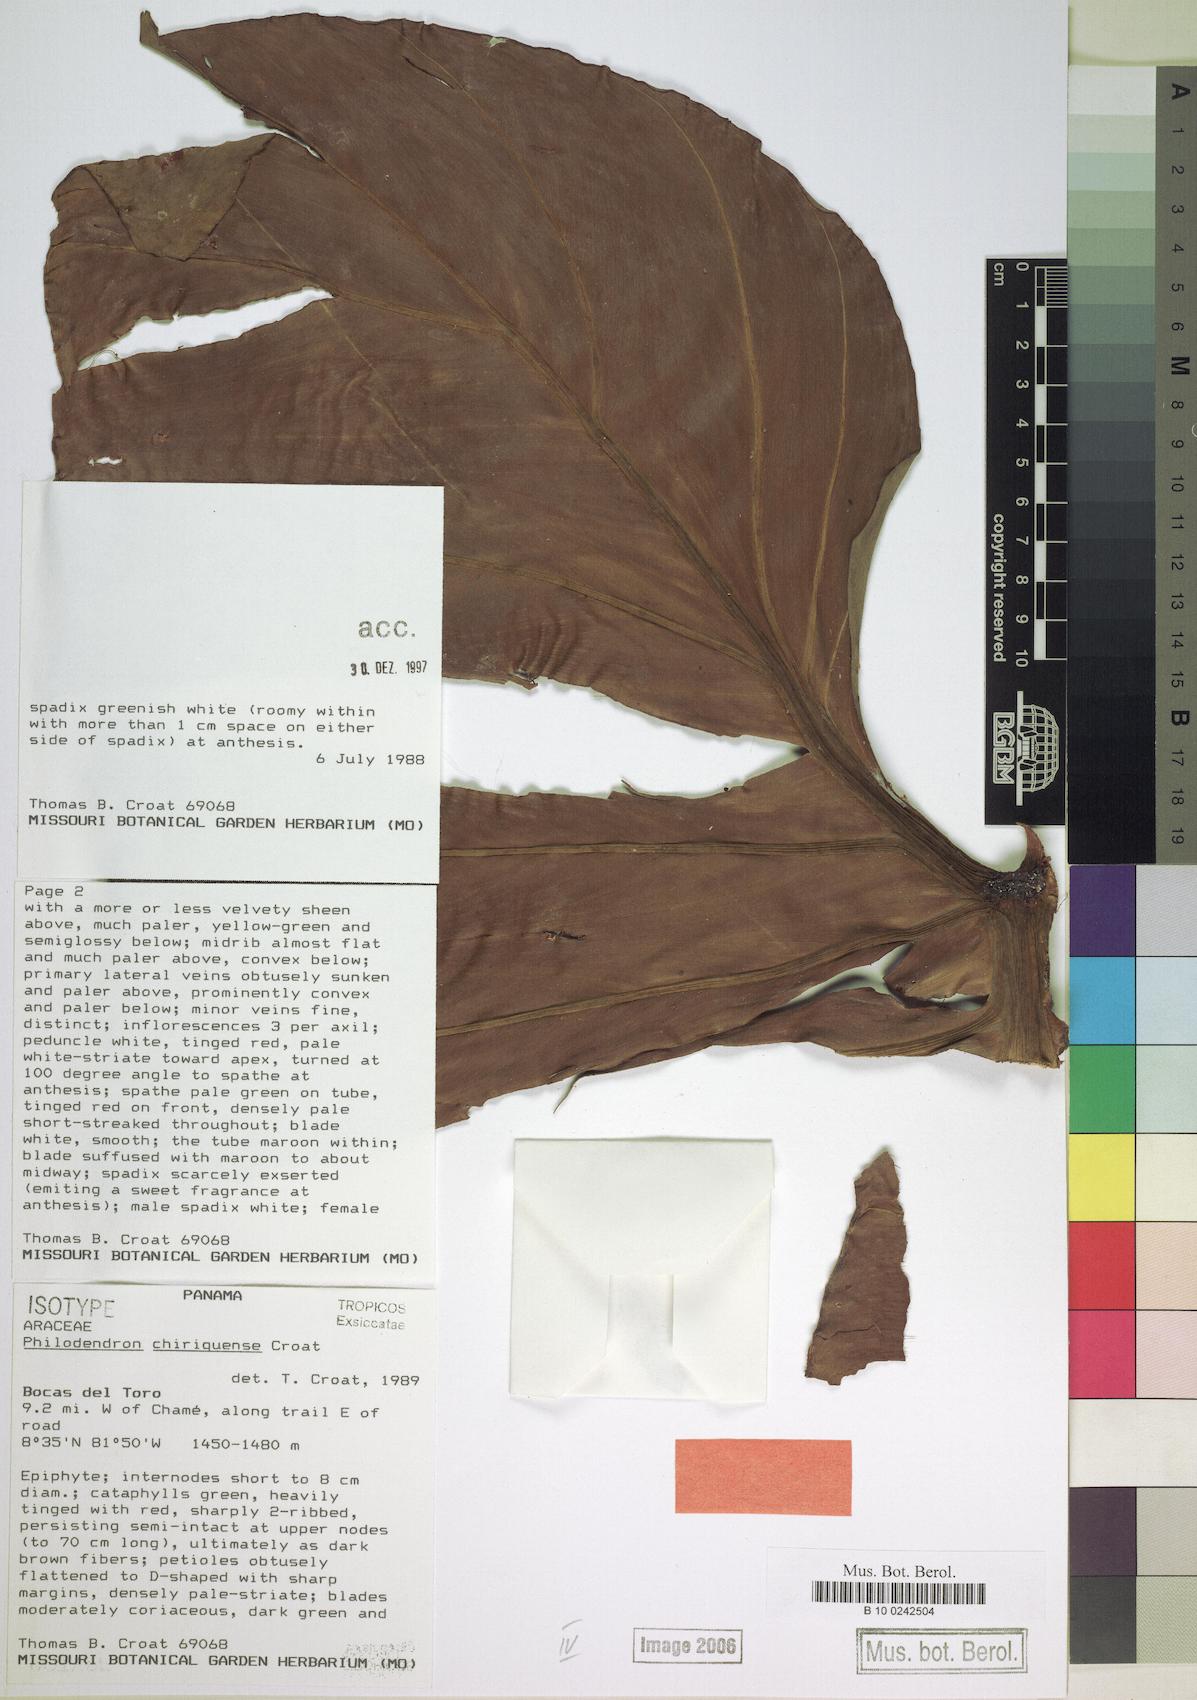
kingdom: Plantae
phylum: Tracheophyta
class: Liliopsida
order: Alismatales
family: Araceae
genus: Philodendron
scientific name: Philodendron chiriquense
